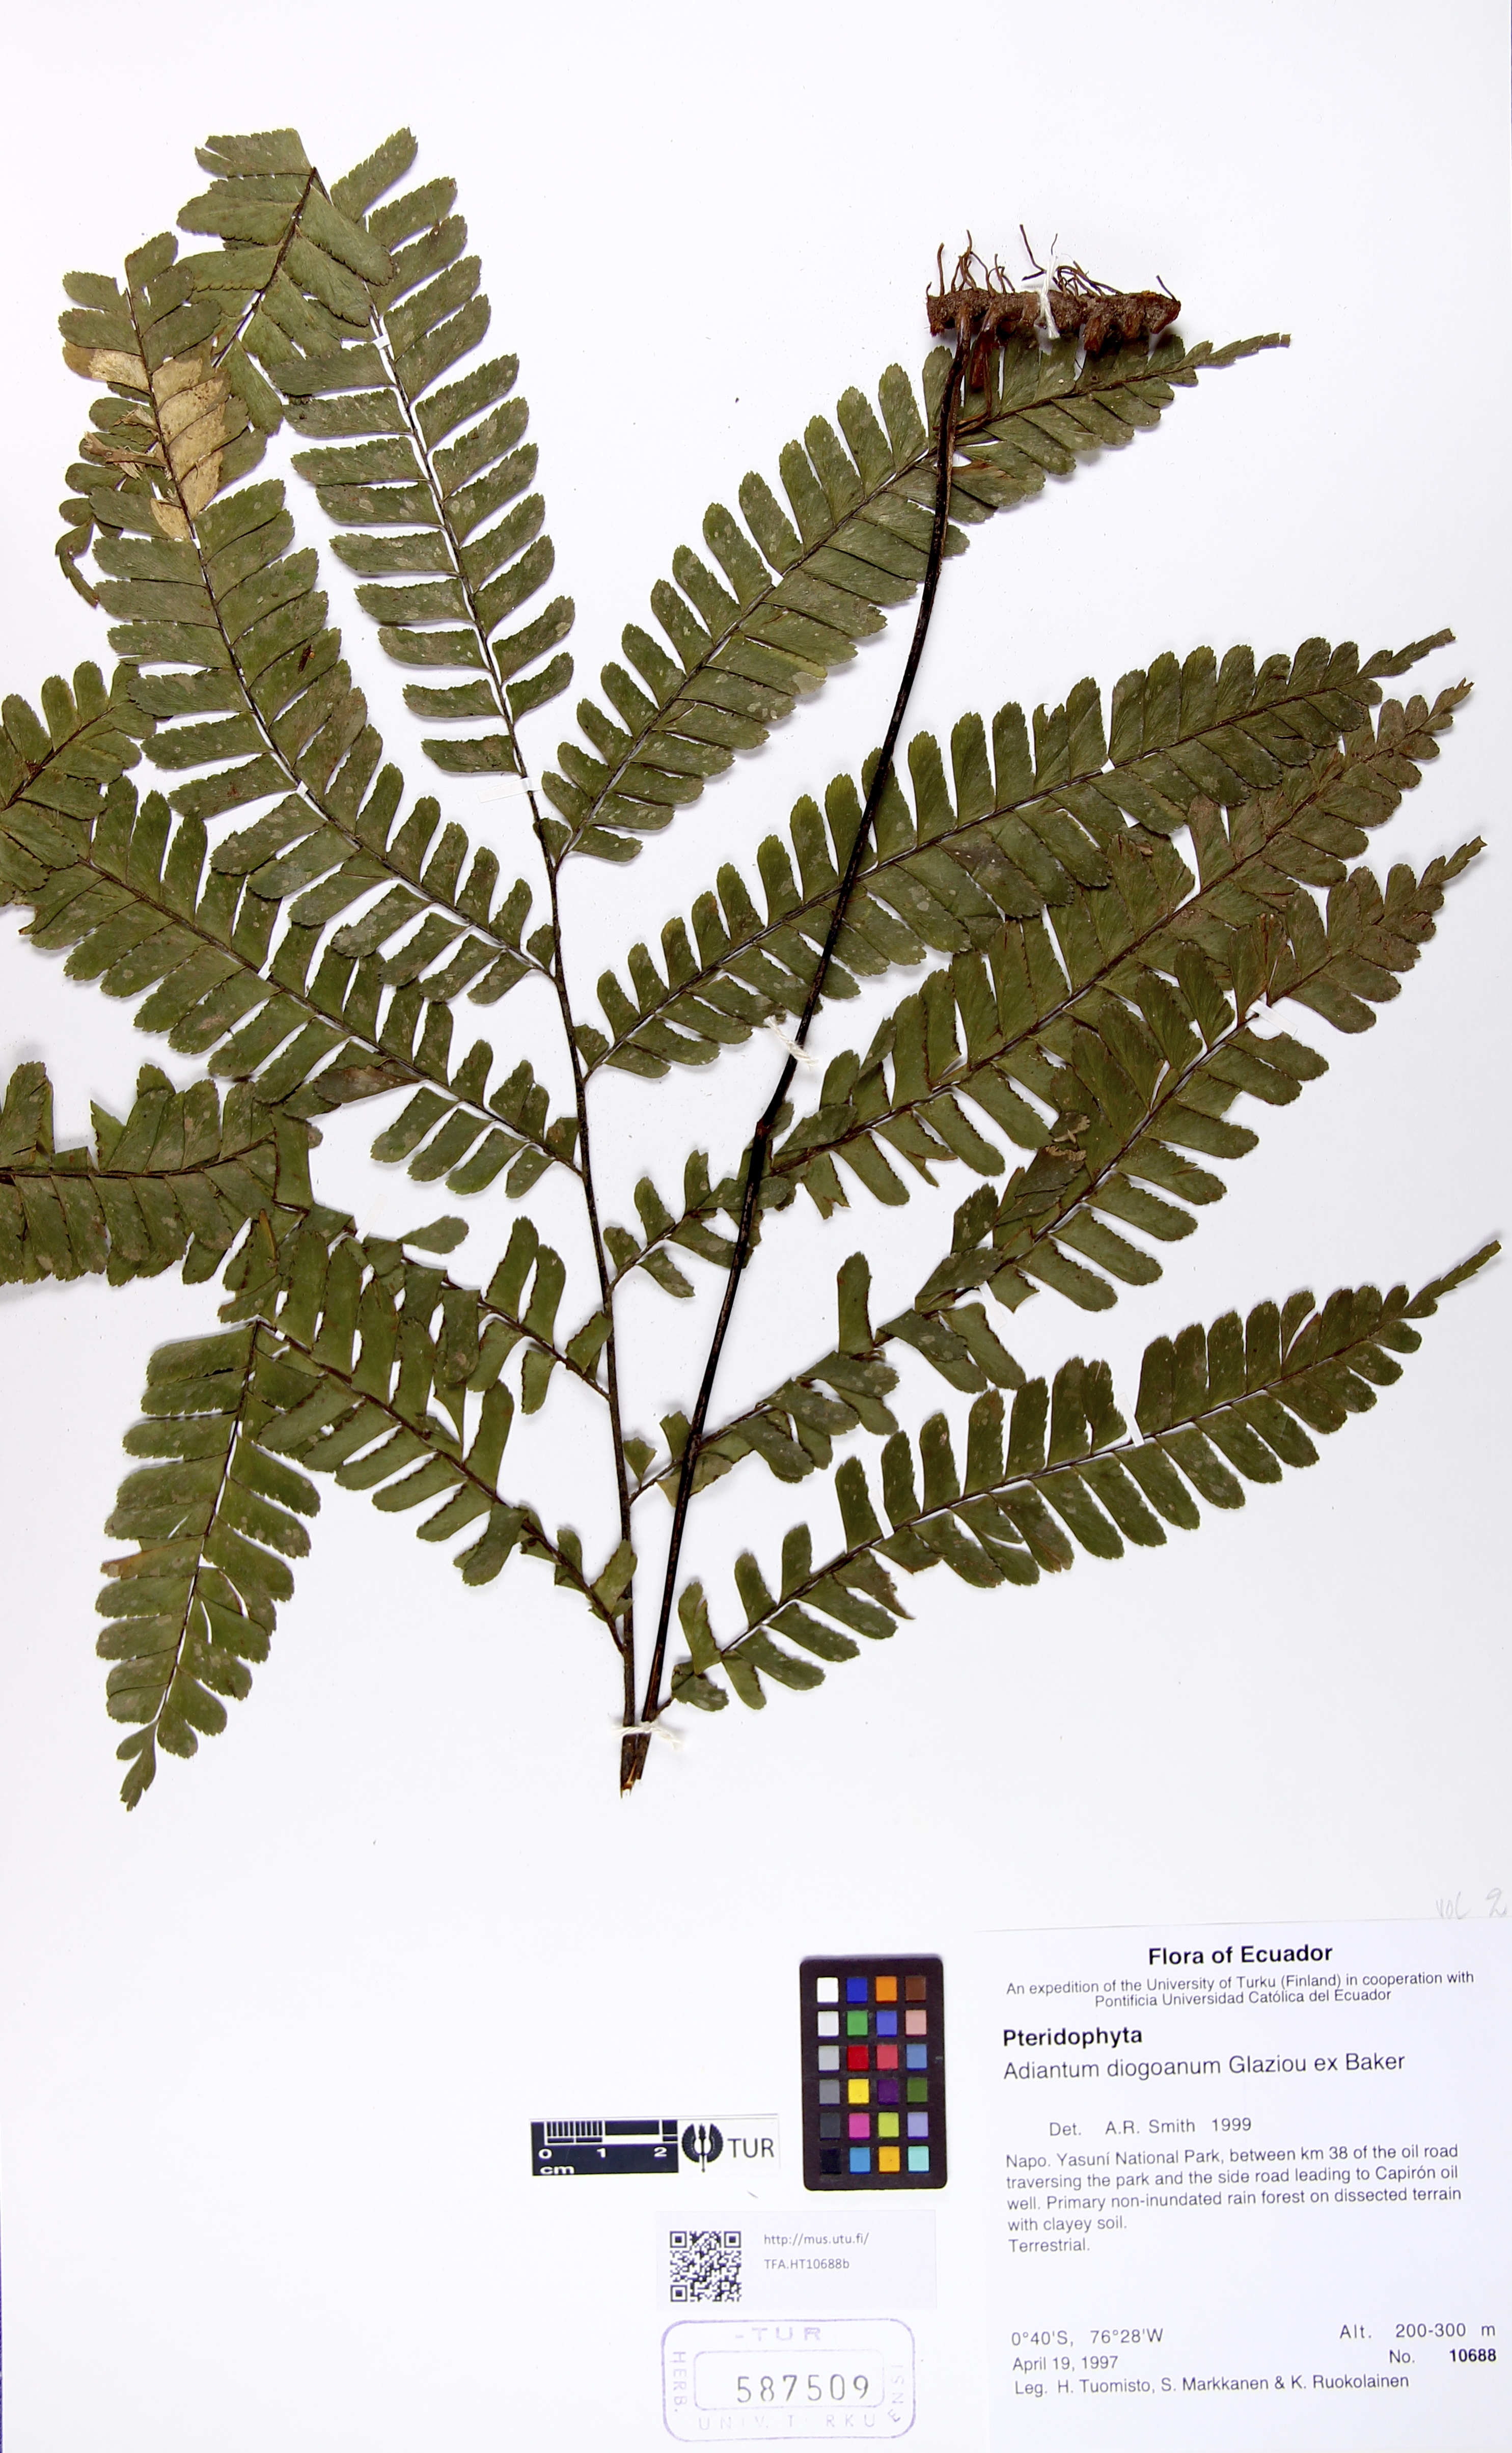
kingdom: Plantae
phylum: Tracheophyta
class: Polypodiopsida
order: Polypodiales
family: Pteridaceae
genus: Adiantum
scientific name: Adiantum diogoanum
